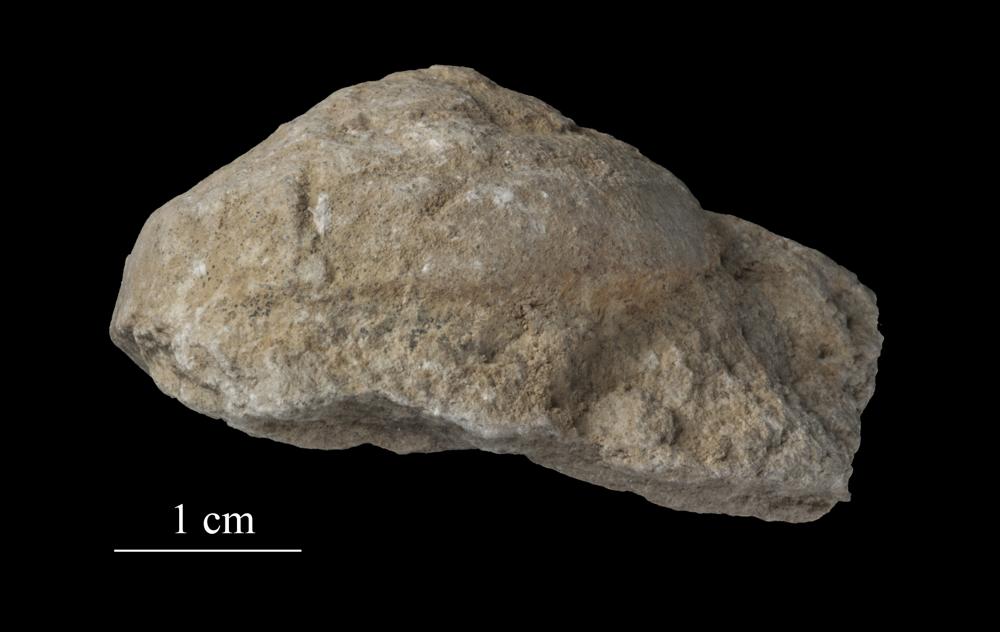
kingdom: Animalia
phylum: Mollusca
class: Gastropoda
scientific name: Gastropoda
